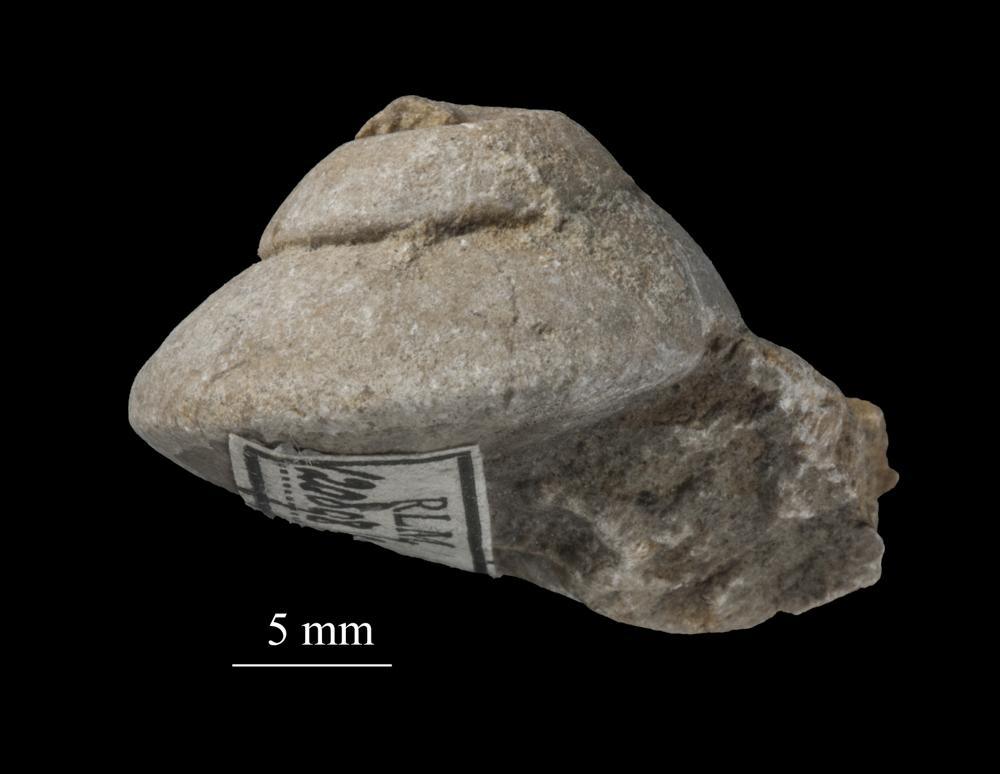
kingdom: Animalia
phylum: Mollusca
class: Gastropoda
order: Trochida
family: Trochidae
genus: Trochus
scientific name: Trochus ellipticus
